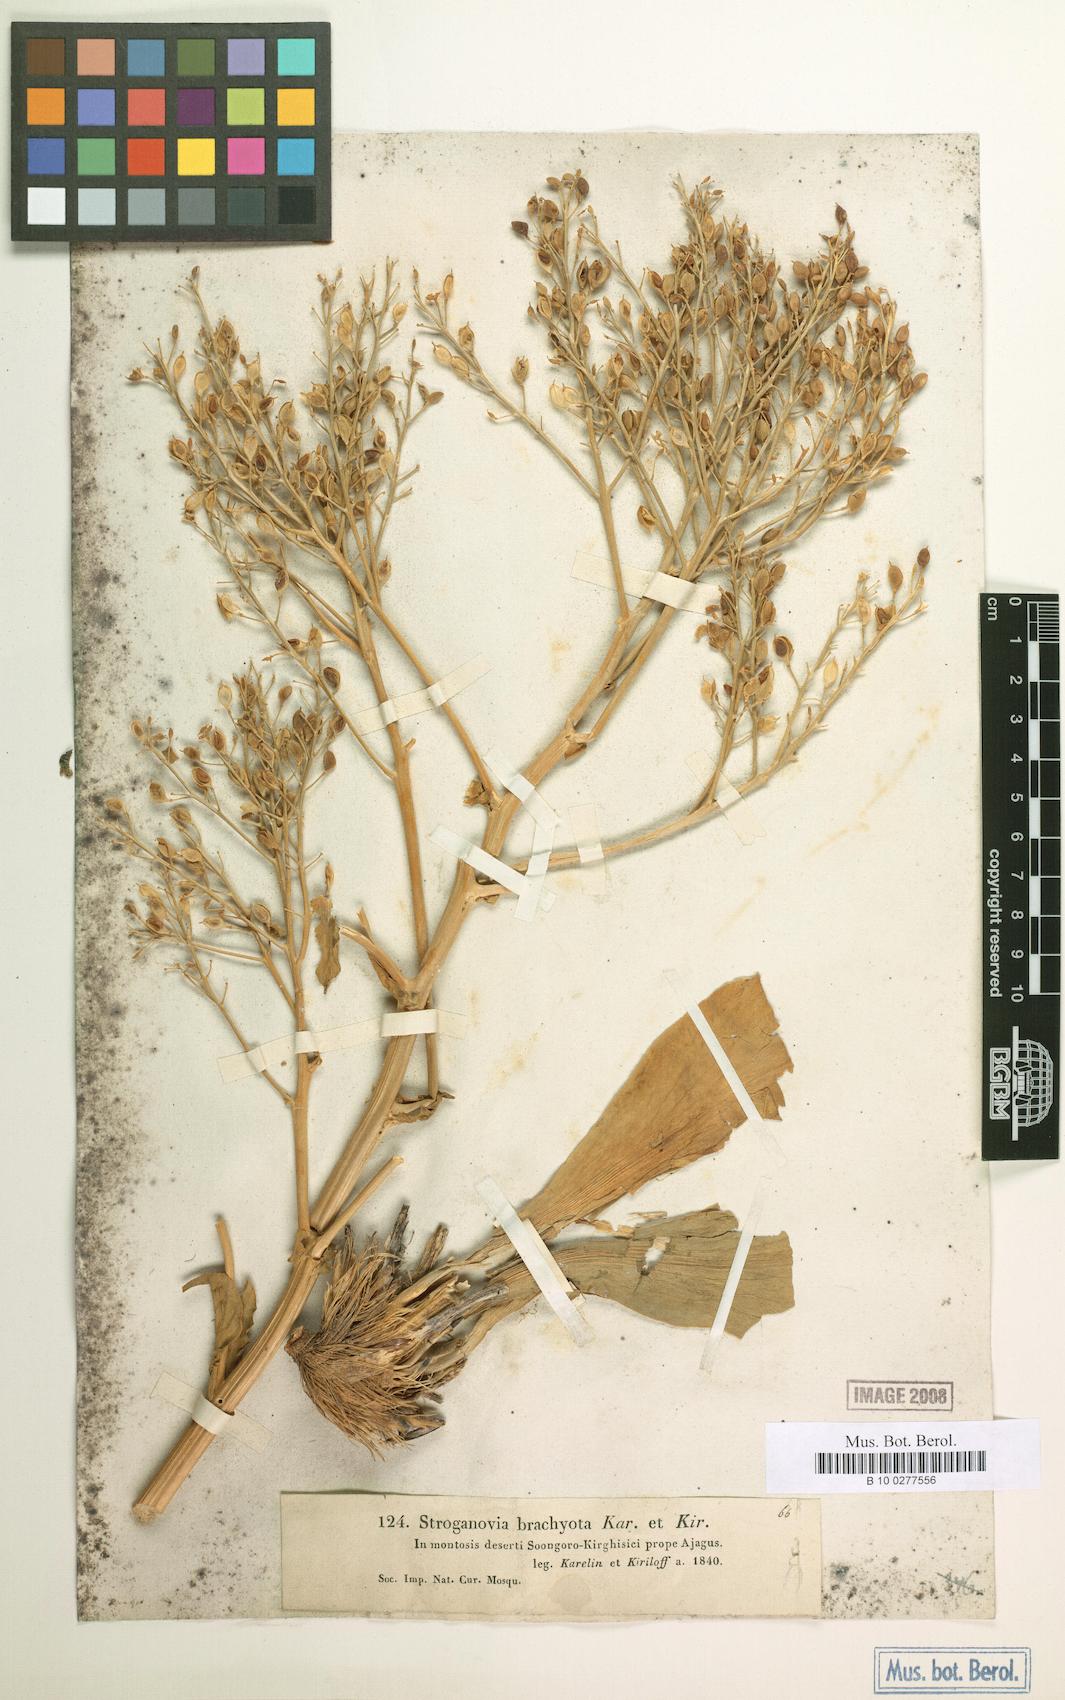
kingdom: Plantae
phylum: Tracheophyta
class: Magnoliopsida
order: Brassicales
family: Brassicaceae
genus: Lepidium
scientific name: Lepidium brachyotum
